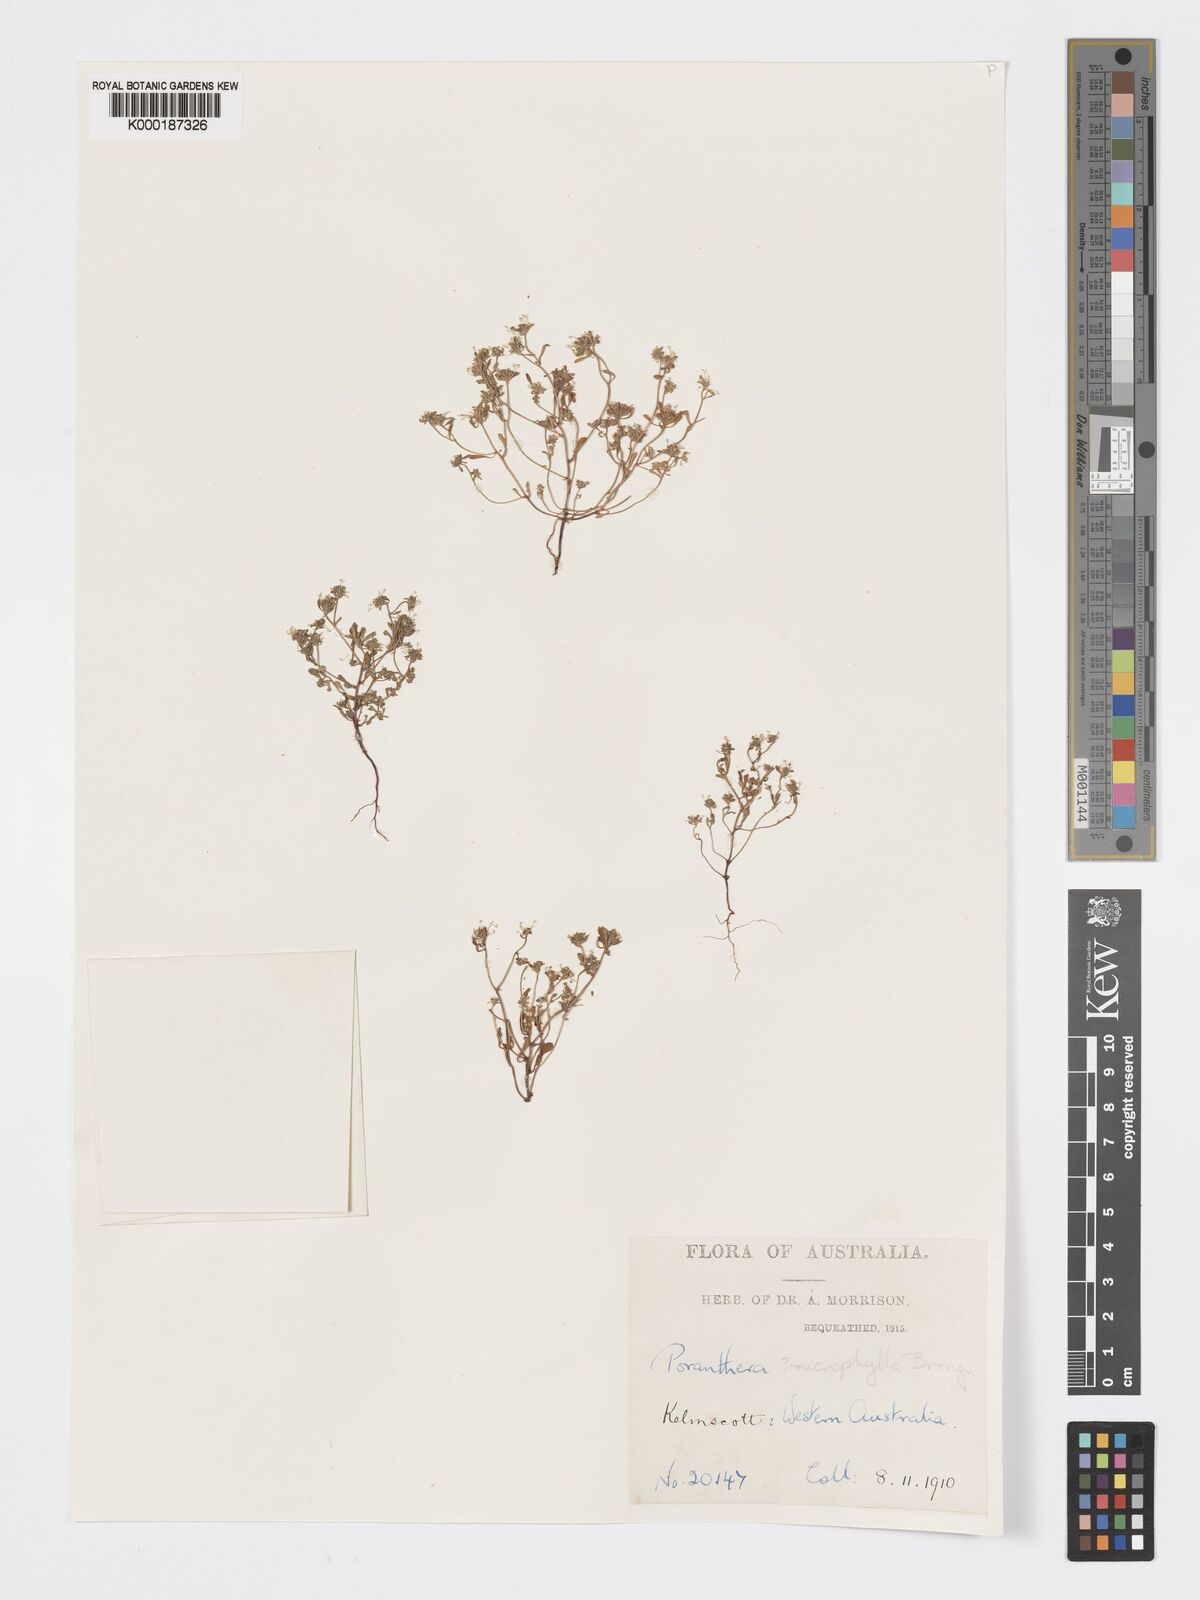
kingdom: Plantae
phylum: Tracheophyta
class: Magnoliopsida
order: Malpighiales
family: Phyllanthaceae
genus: Poranthera
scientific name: Poranthera microphylla
